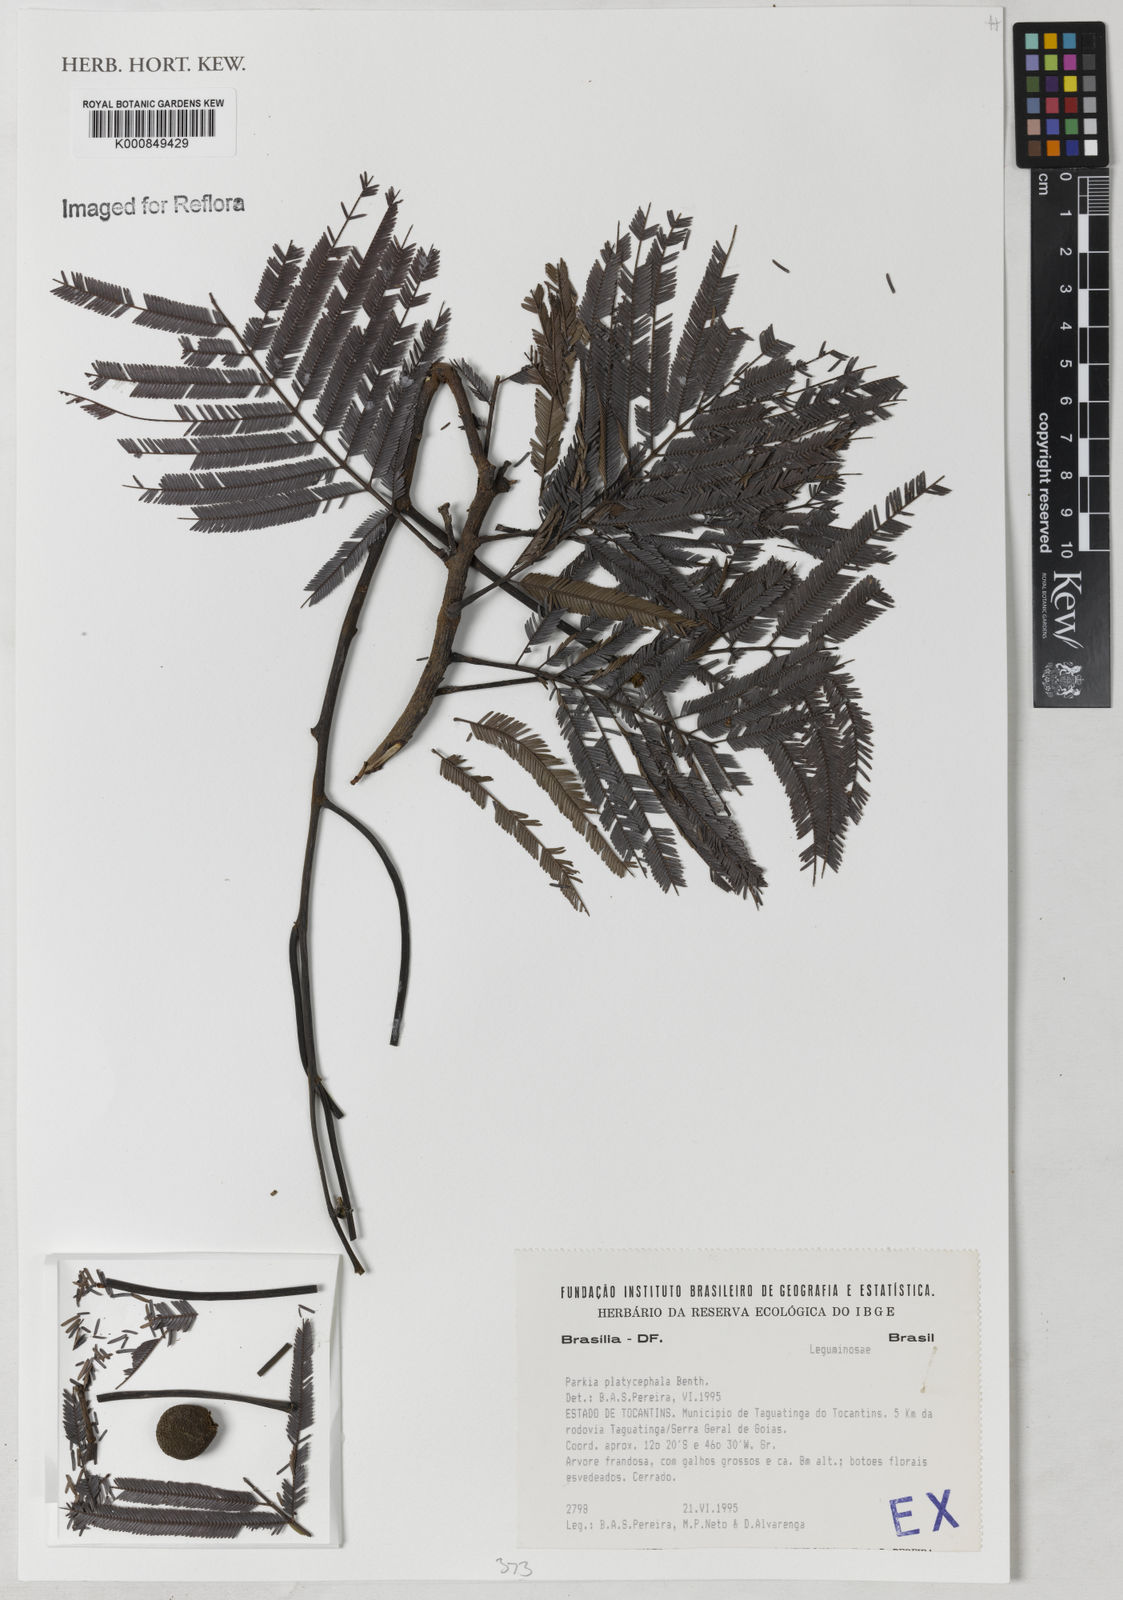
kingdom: Plantae
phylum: Tracheophyta
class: Magnoliopsida
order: Fabales
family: Fabaceae
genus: Parkia
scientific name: Parkia platycephala
